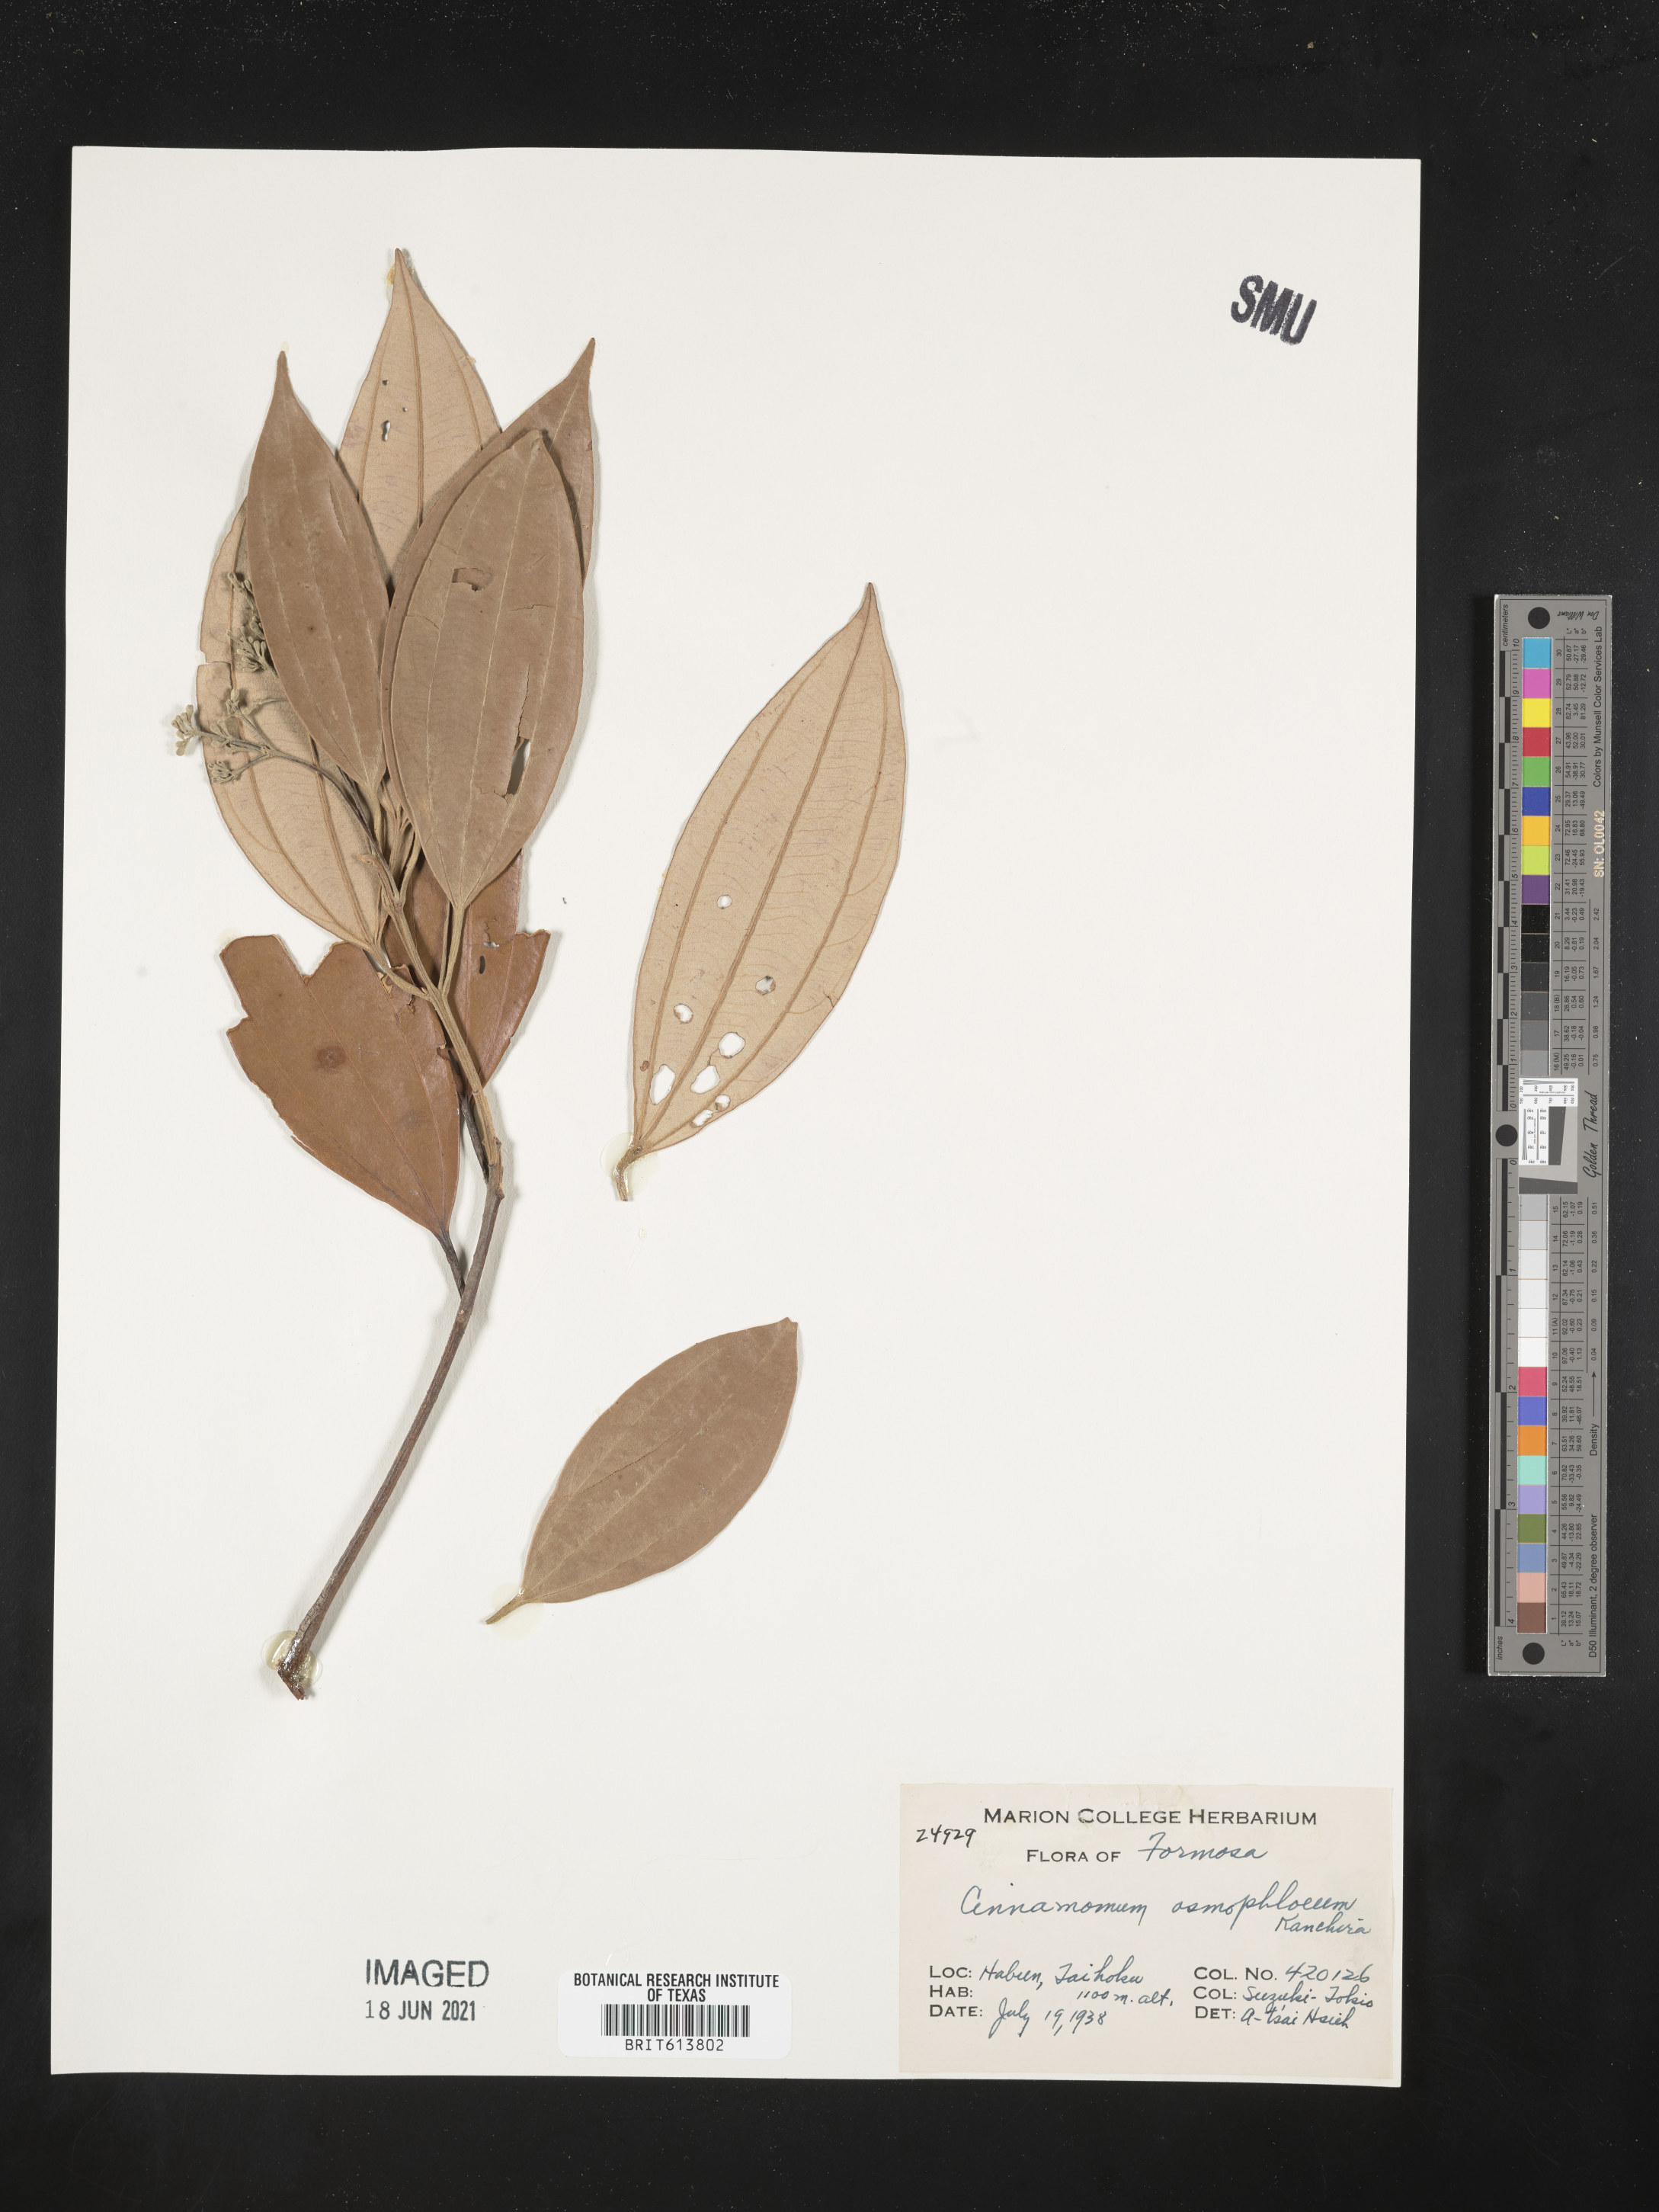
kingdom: Plantae
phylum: Tracheophyta
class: Magnoliopsida
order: Laurales
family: Lauraceae
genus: Cinnamomum
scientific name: Cinnamomum osmophloeum
